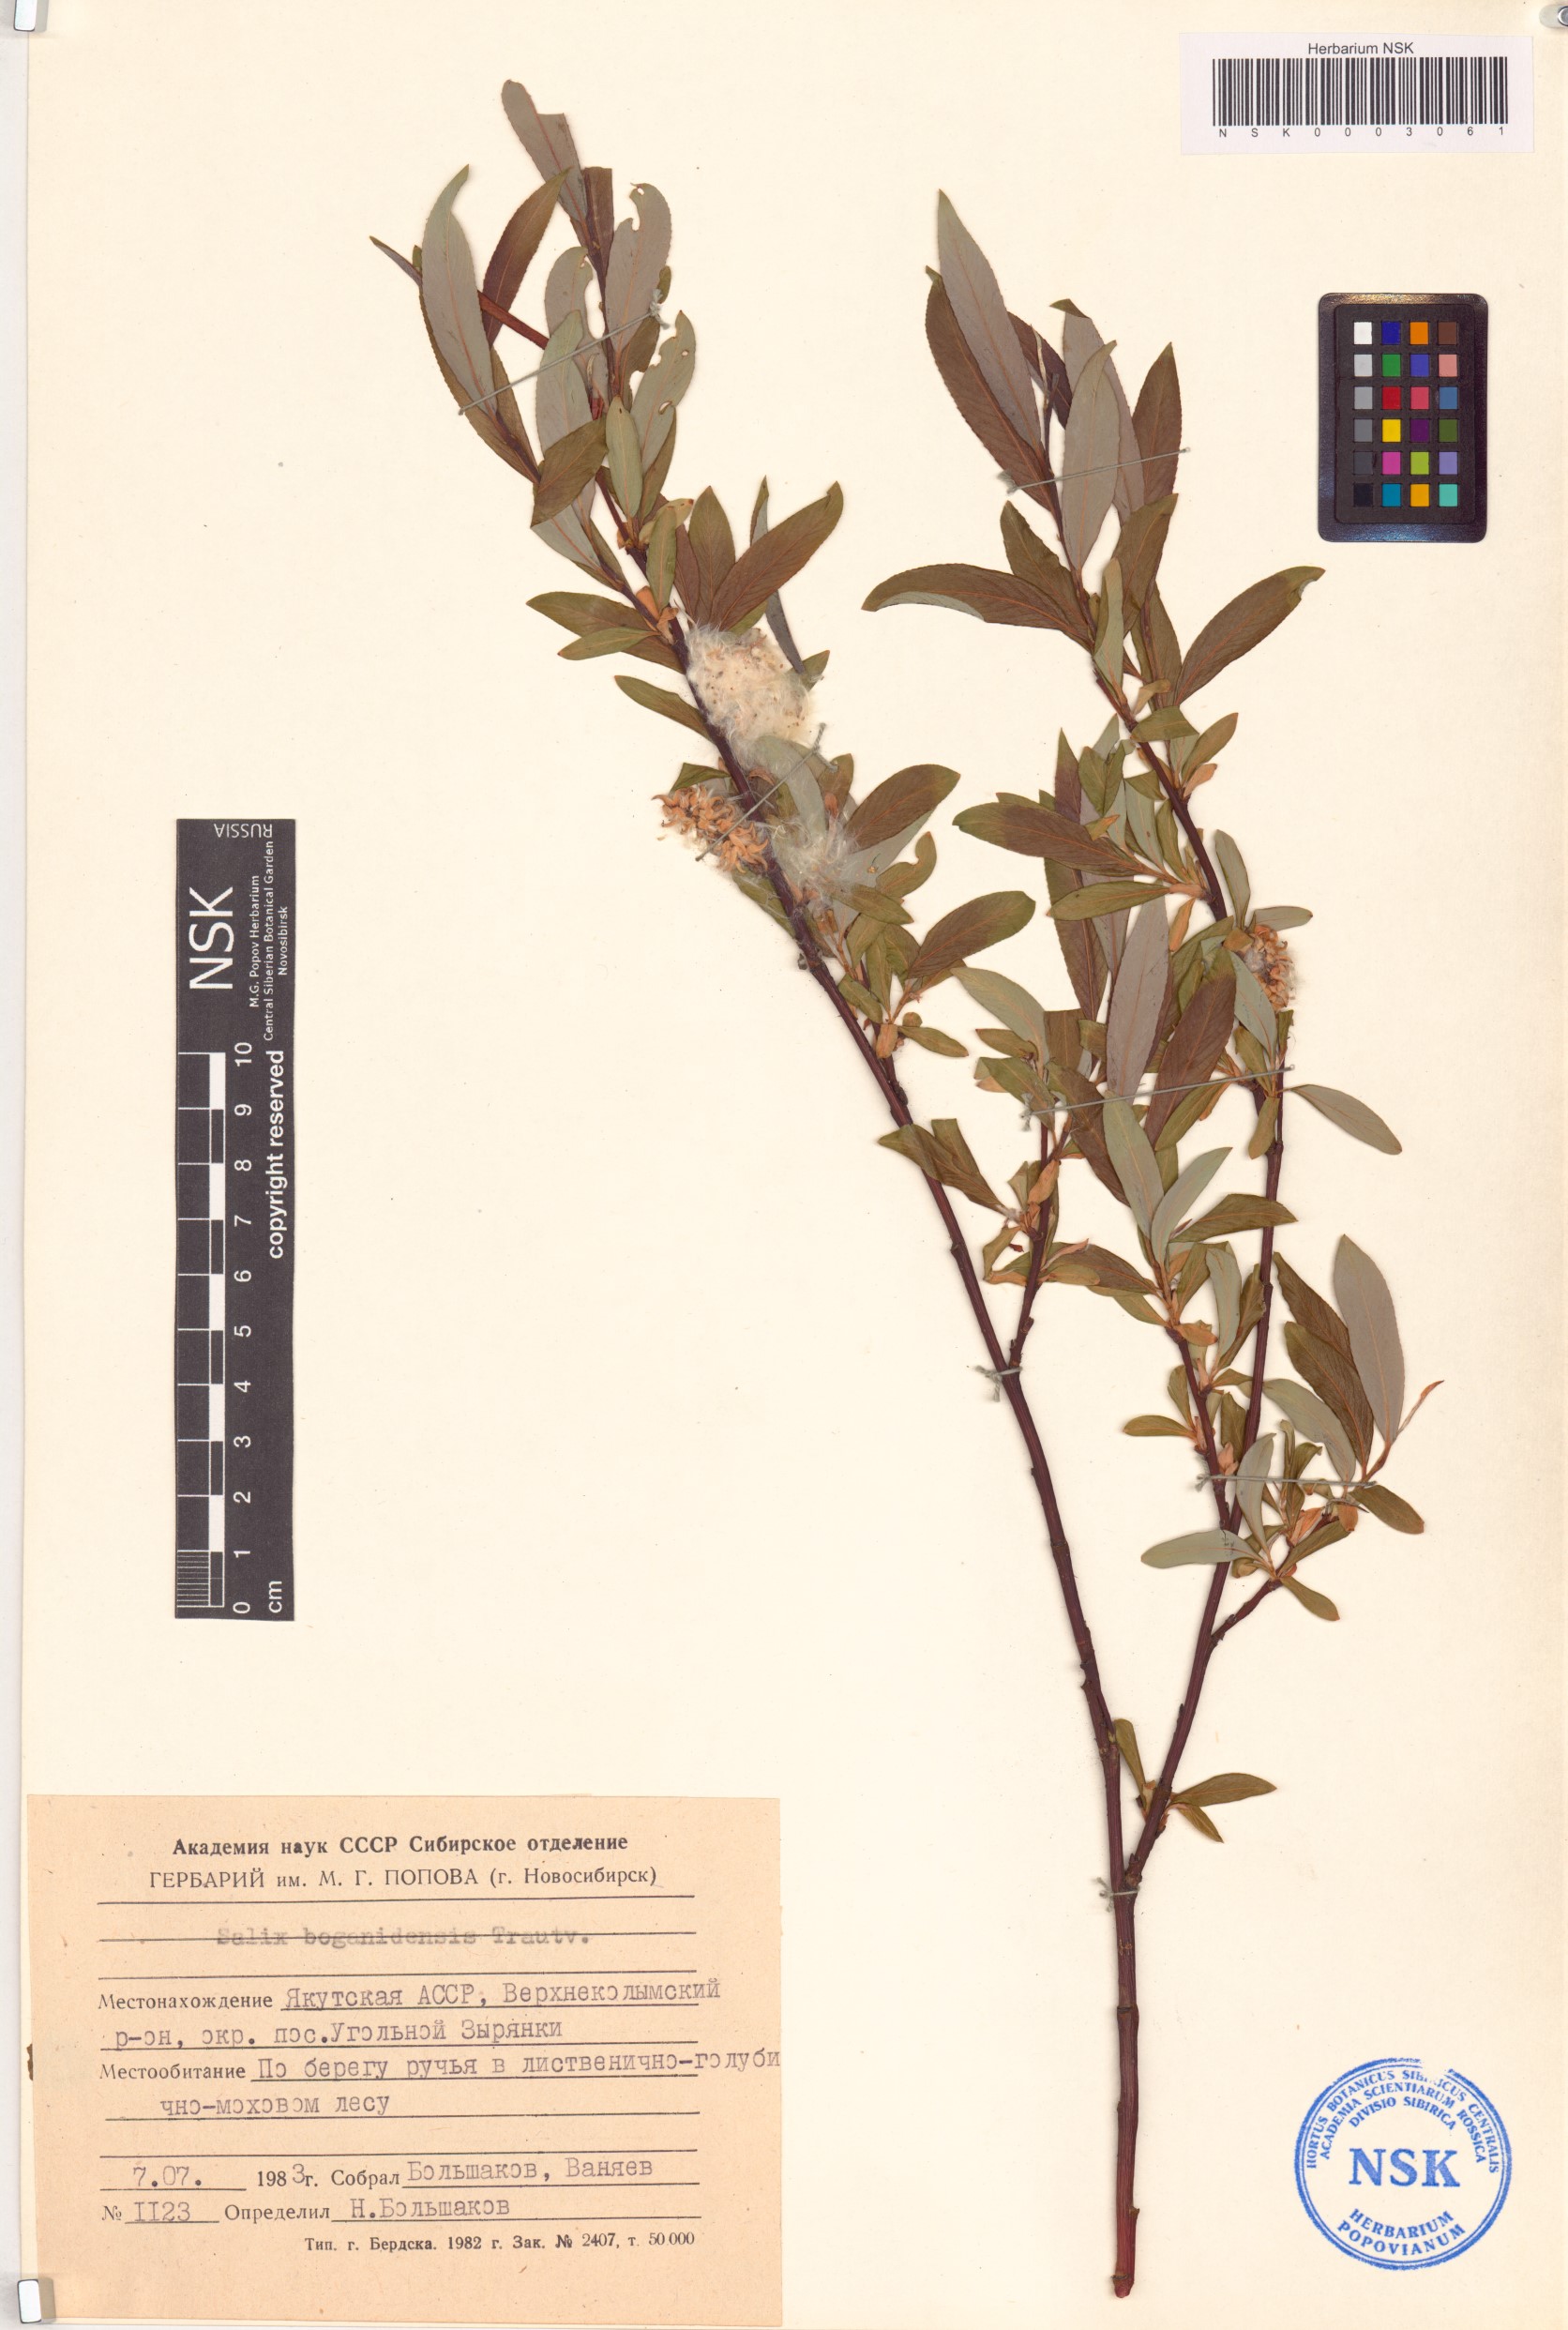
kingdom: Plantae
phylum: Tracheophyta
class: Magnoliopsida
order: Malpighiales
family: Salicaceae
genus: Salix
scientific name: Salix boganidensis
